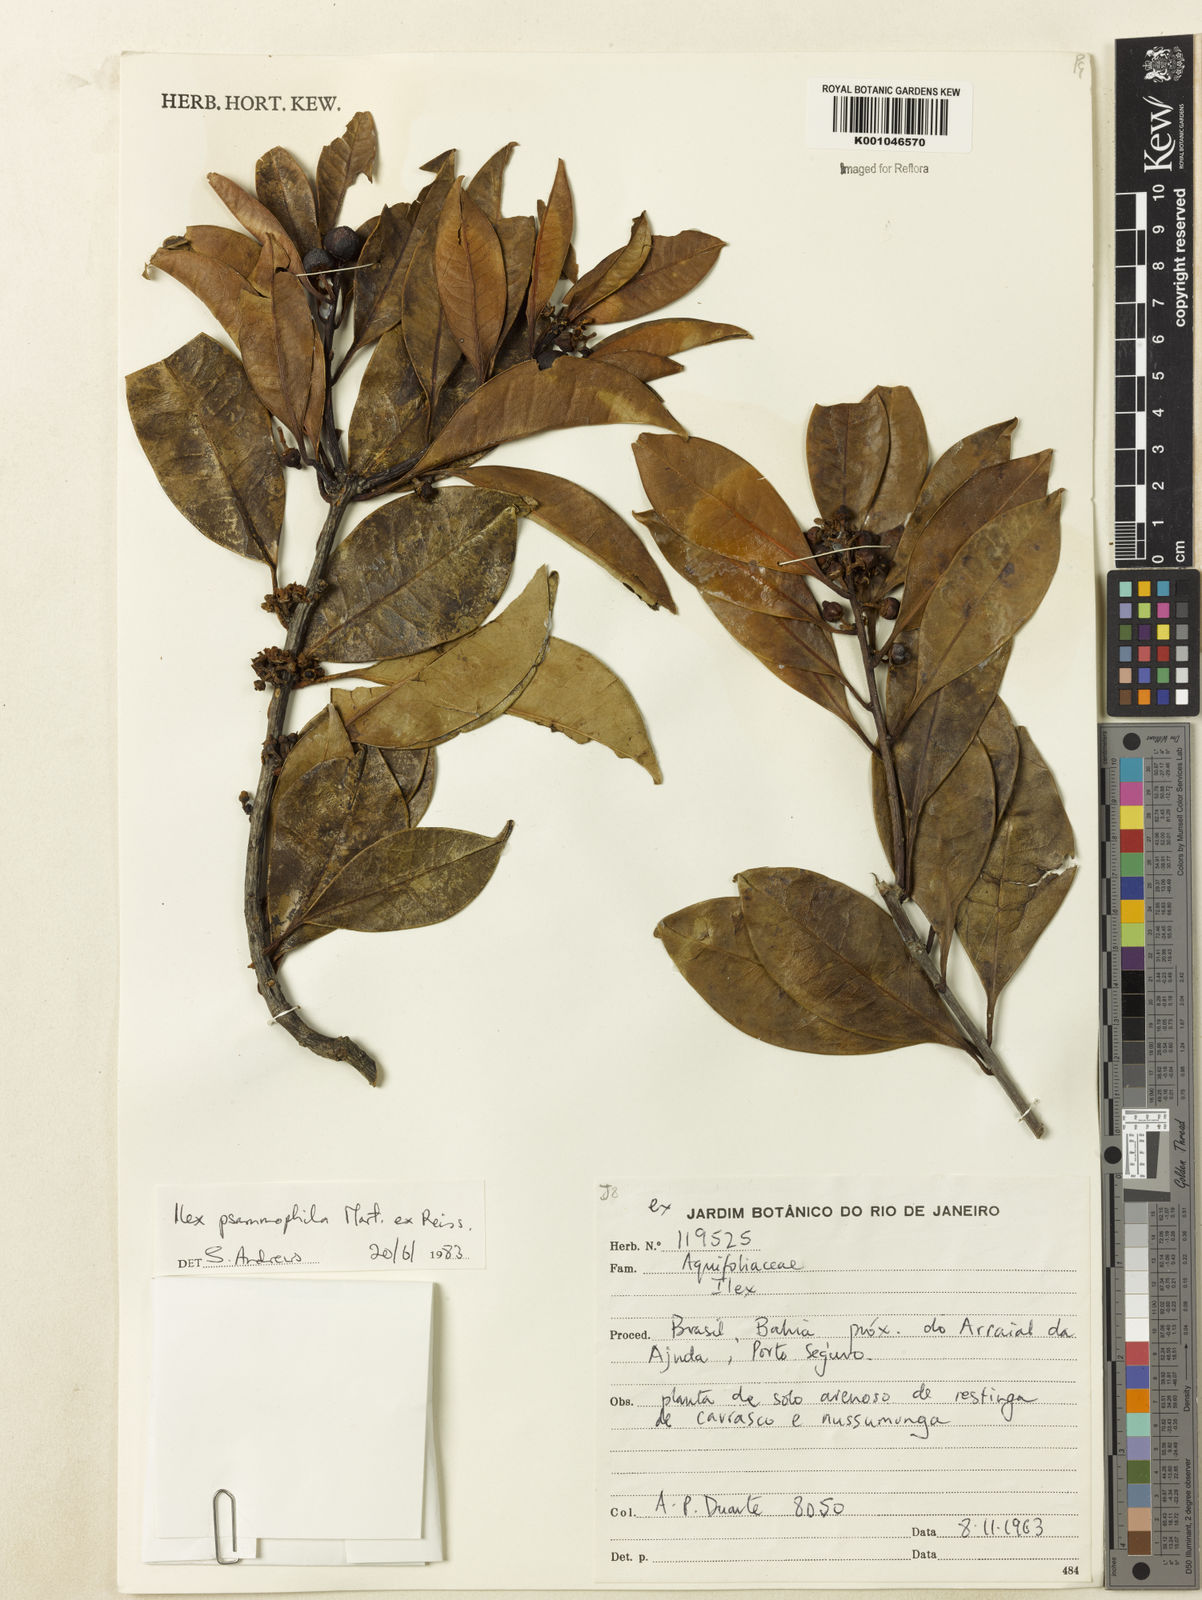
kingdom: Plantae
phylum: Tracheophyta
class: Magnoliopsida
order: Aquifoliales
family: Aquifoliaceae
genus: Ilex
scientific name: Ilex psammophila
